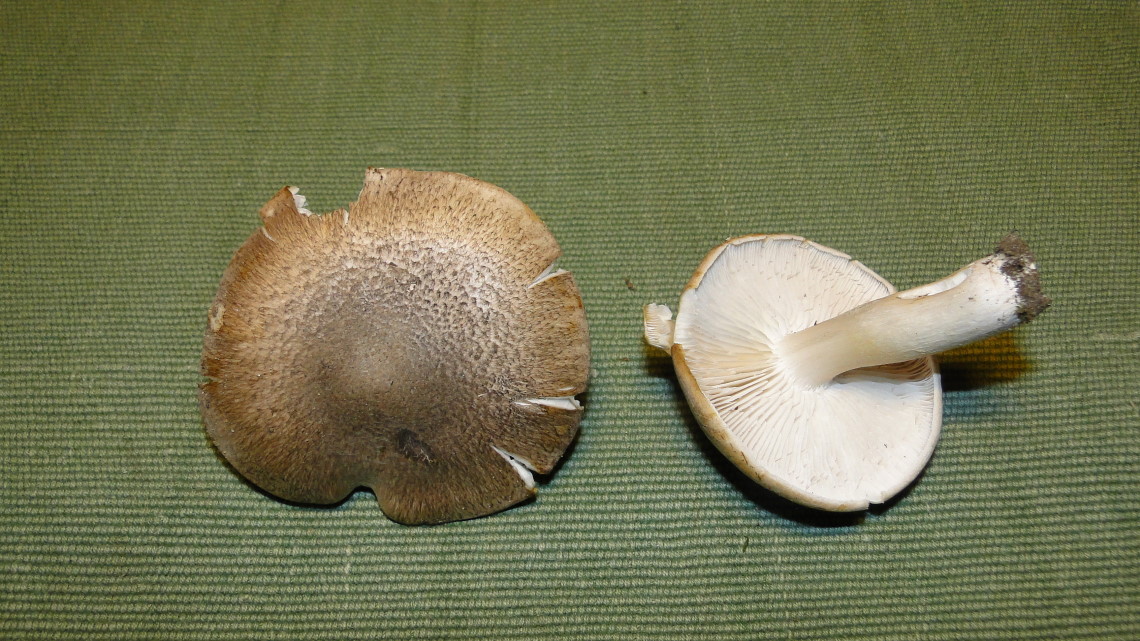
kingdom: Fungi
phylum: Basidiomycota
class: Agaricomycetes
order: Agaricales
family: Tricholomataceae
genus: Tricholoma
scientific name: Tricholoma terreum
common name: jordfarvet ridderhat
